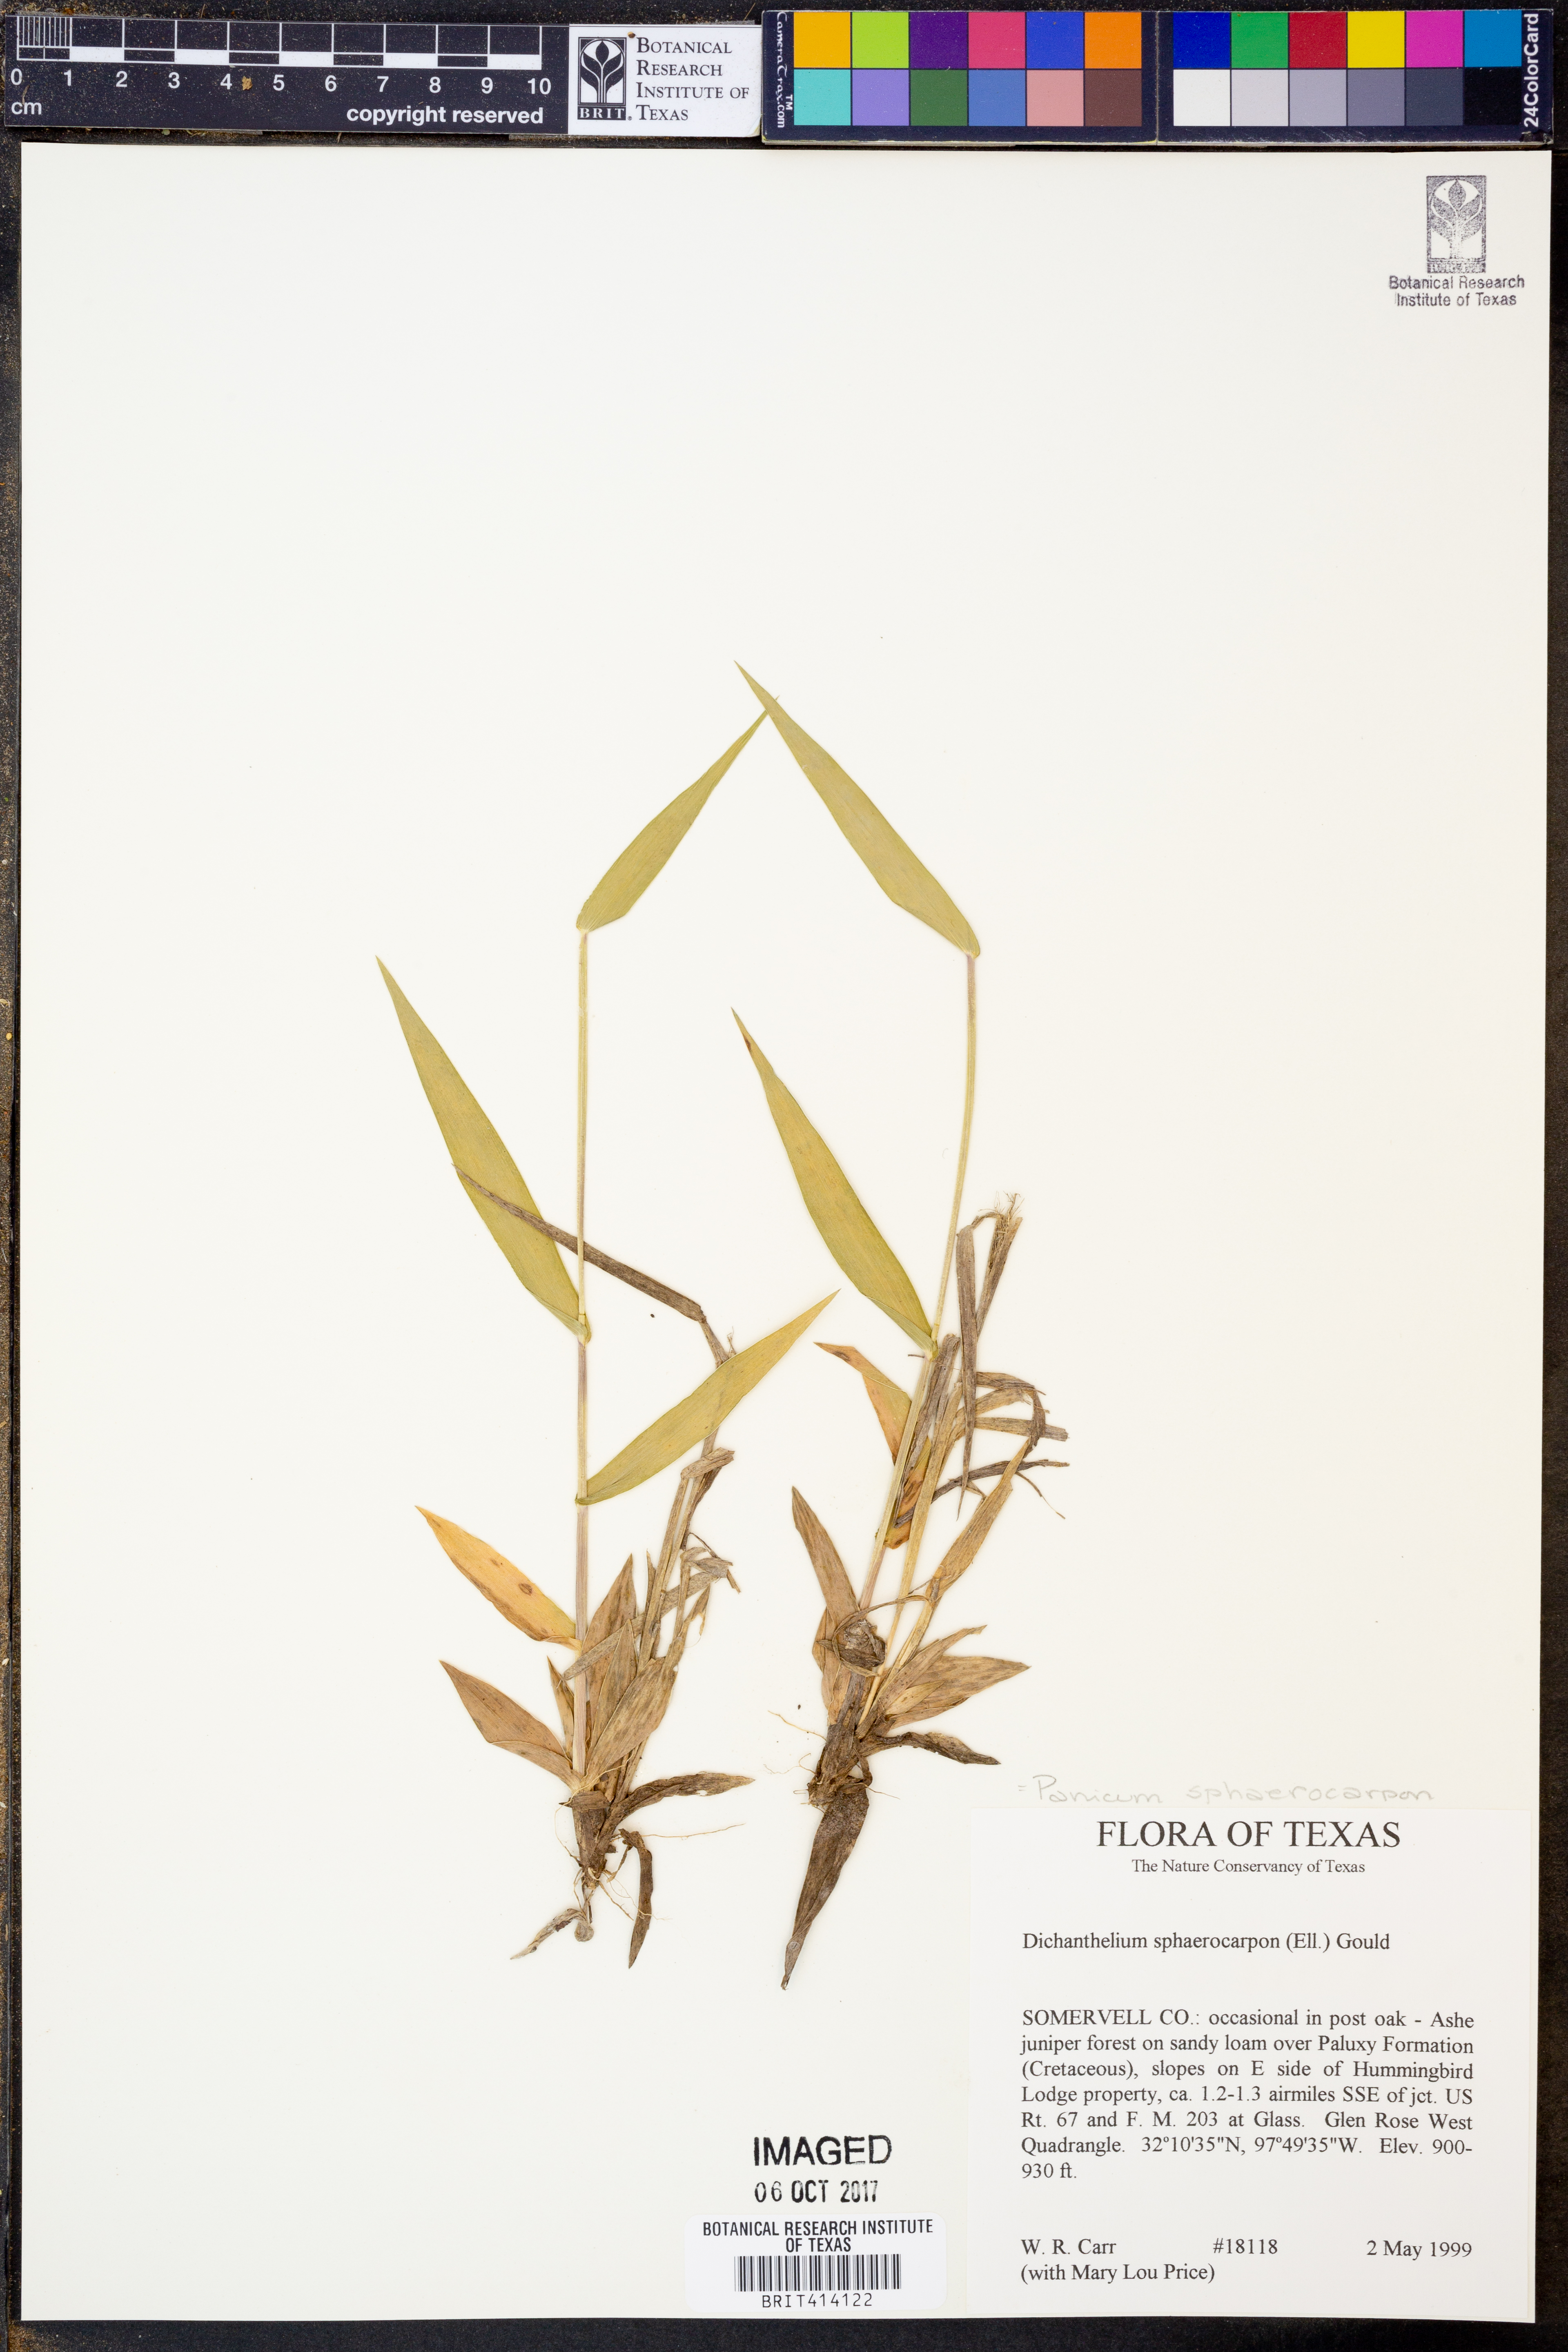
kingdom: Plantae
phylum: Tracheophyta
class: Liliopsida
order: Poales
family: Poaceae
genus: Dichanthelium
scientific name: Dichanthelium sphaerocarpon
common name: Round-fruited panicgrass
